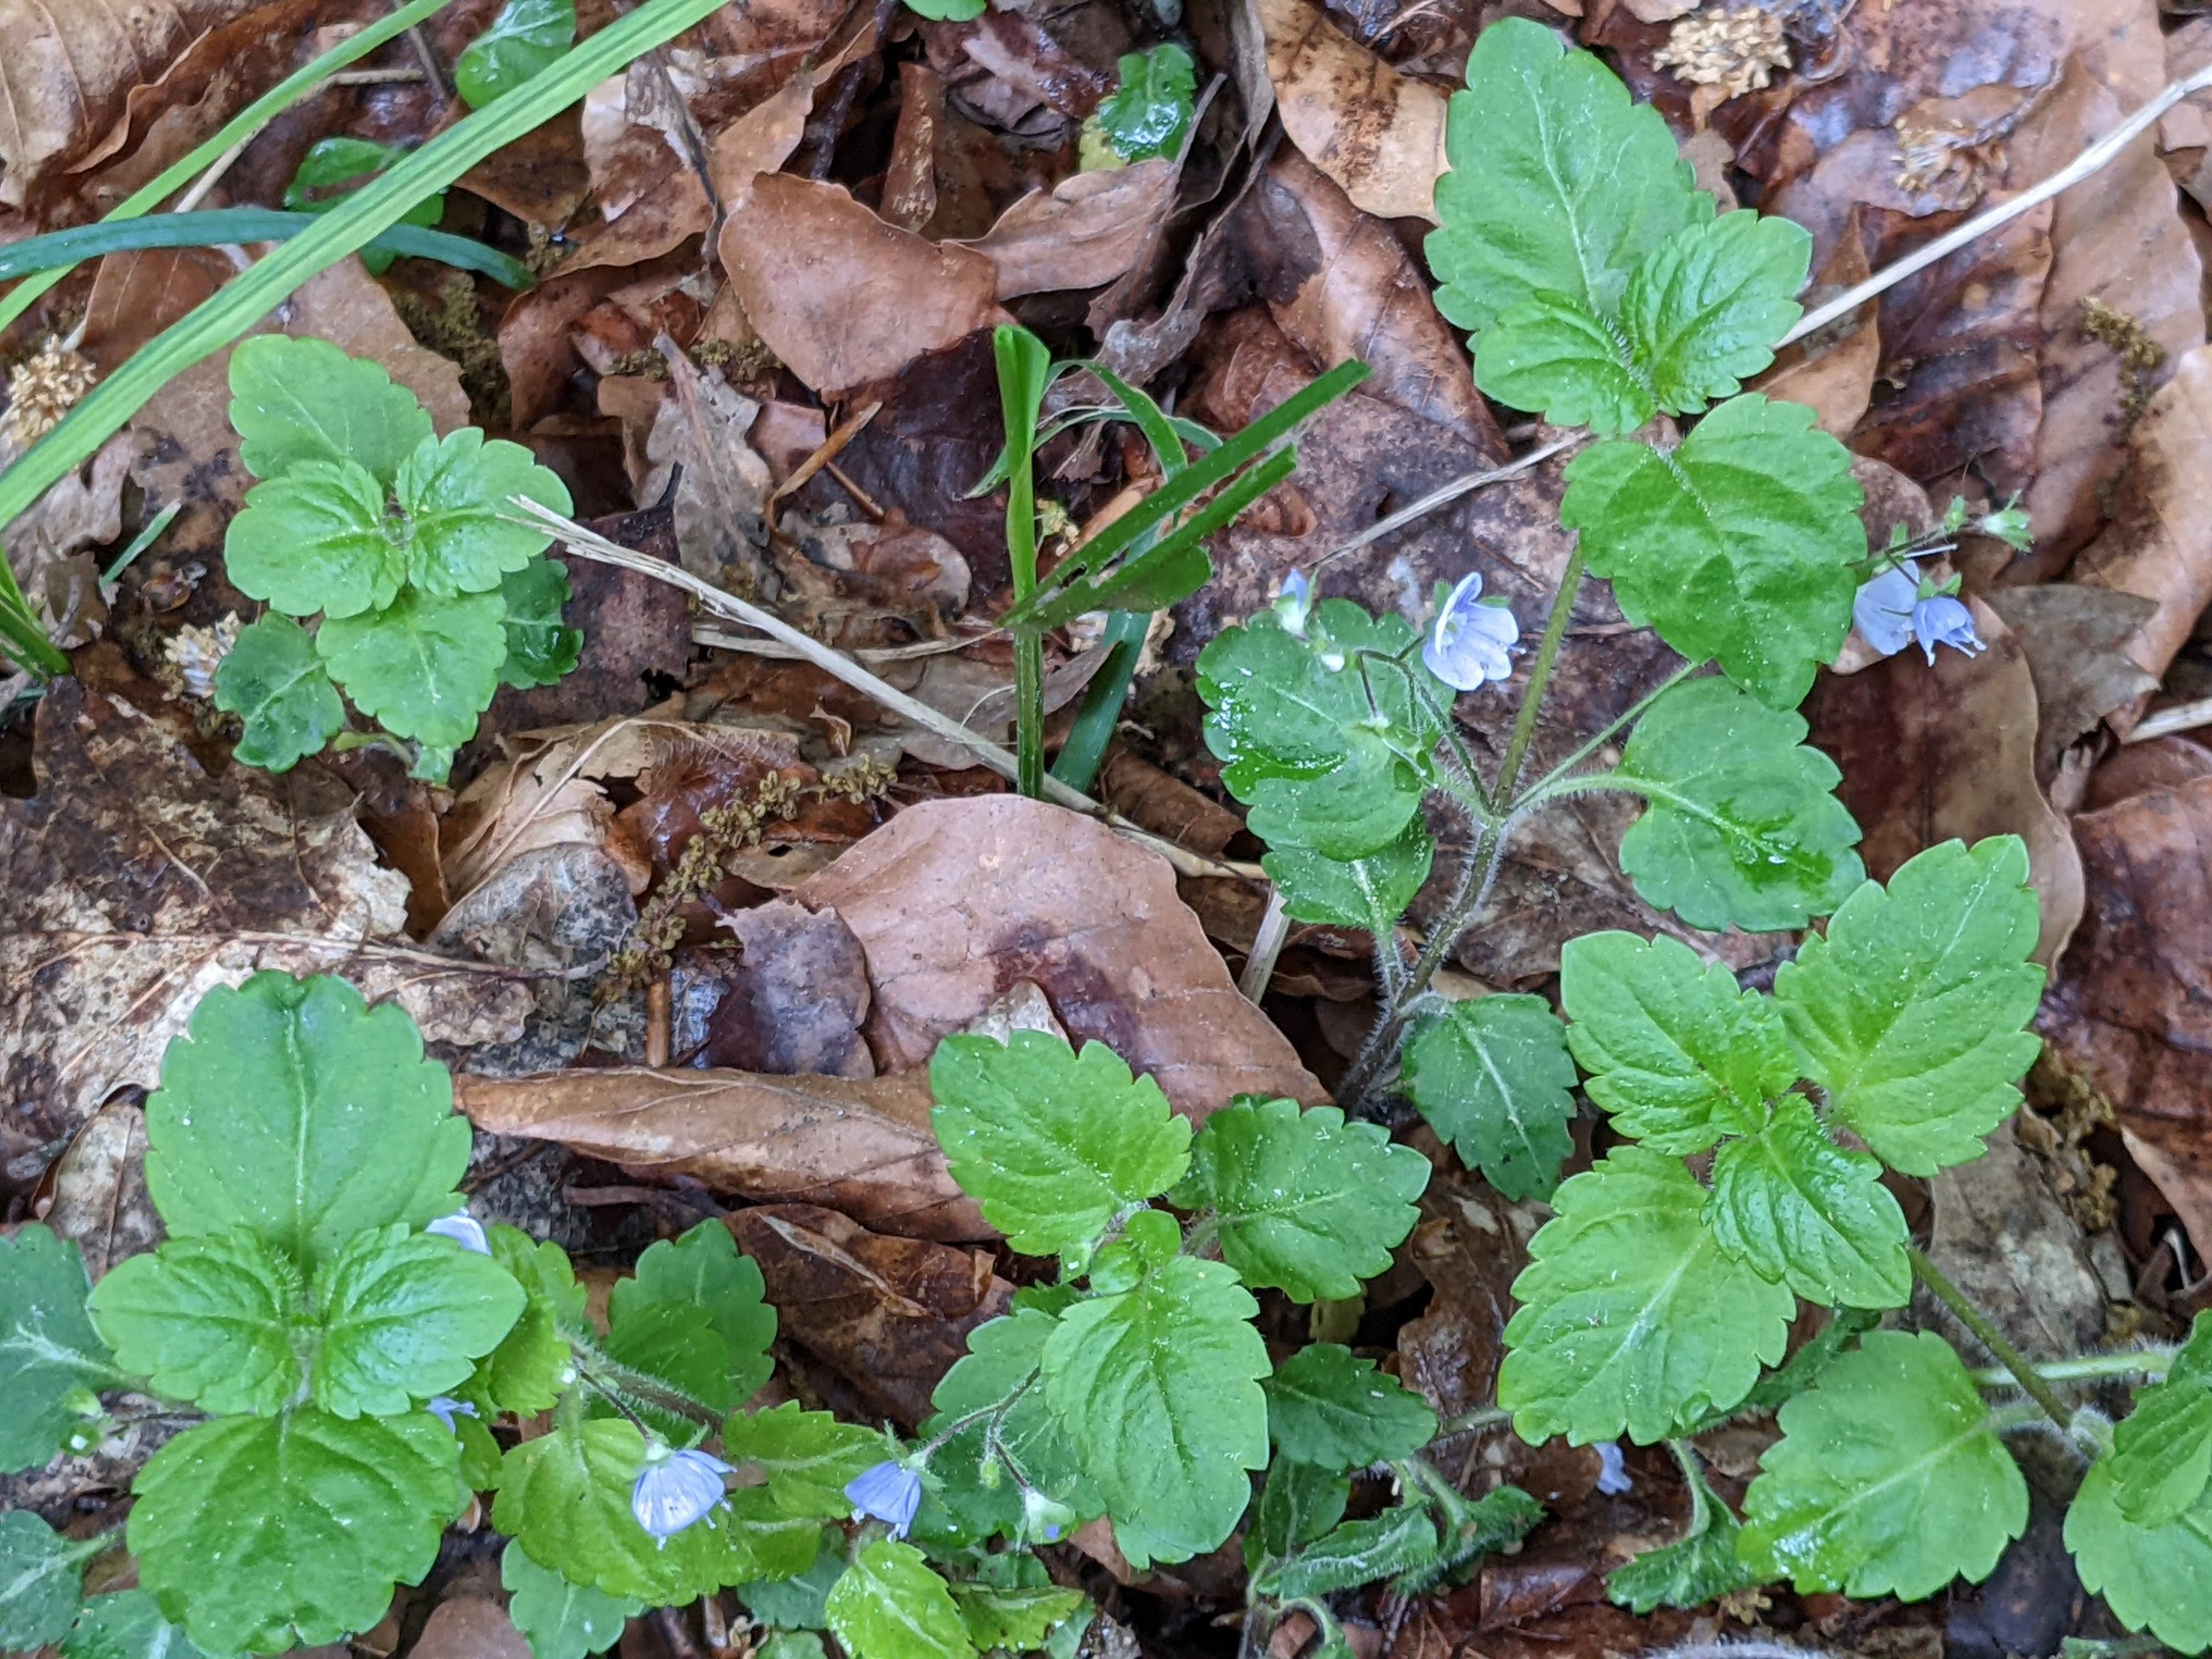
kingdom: Plantae
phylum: Tracheophyta
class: Magnoliopsida
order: Lamiales
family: Plantaginaceae
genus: Veronica
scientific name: Veronica montana
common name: Bjerg-ærenpris
